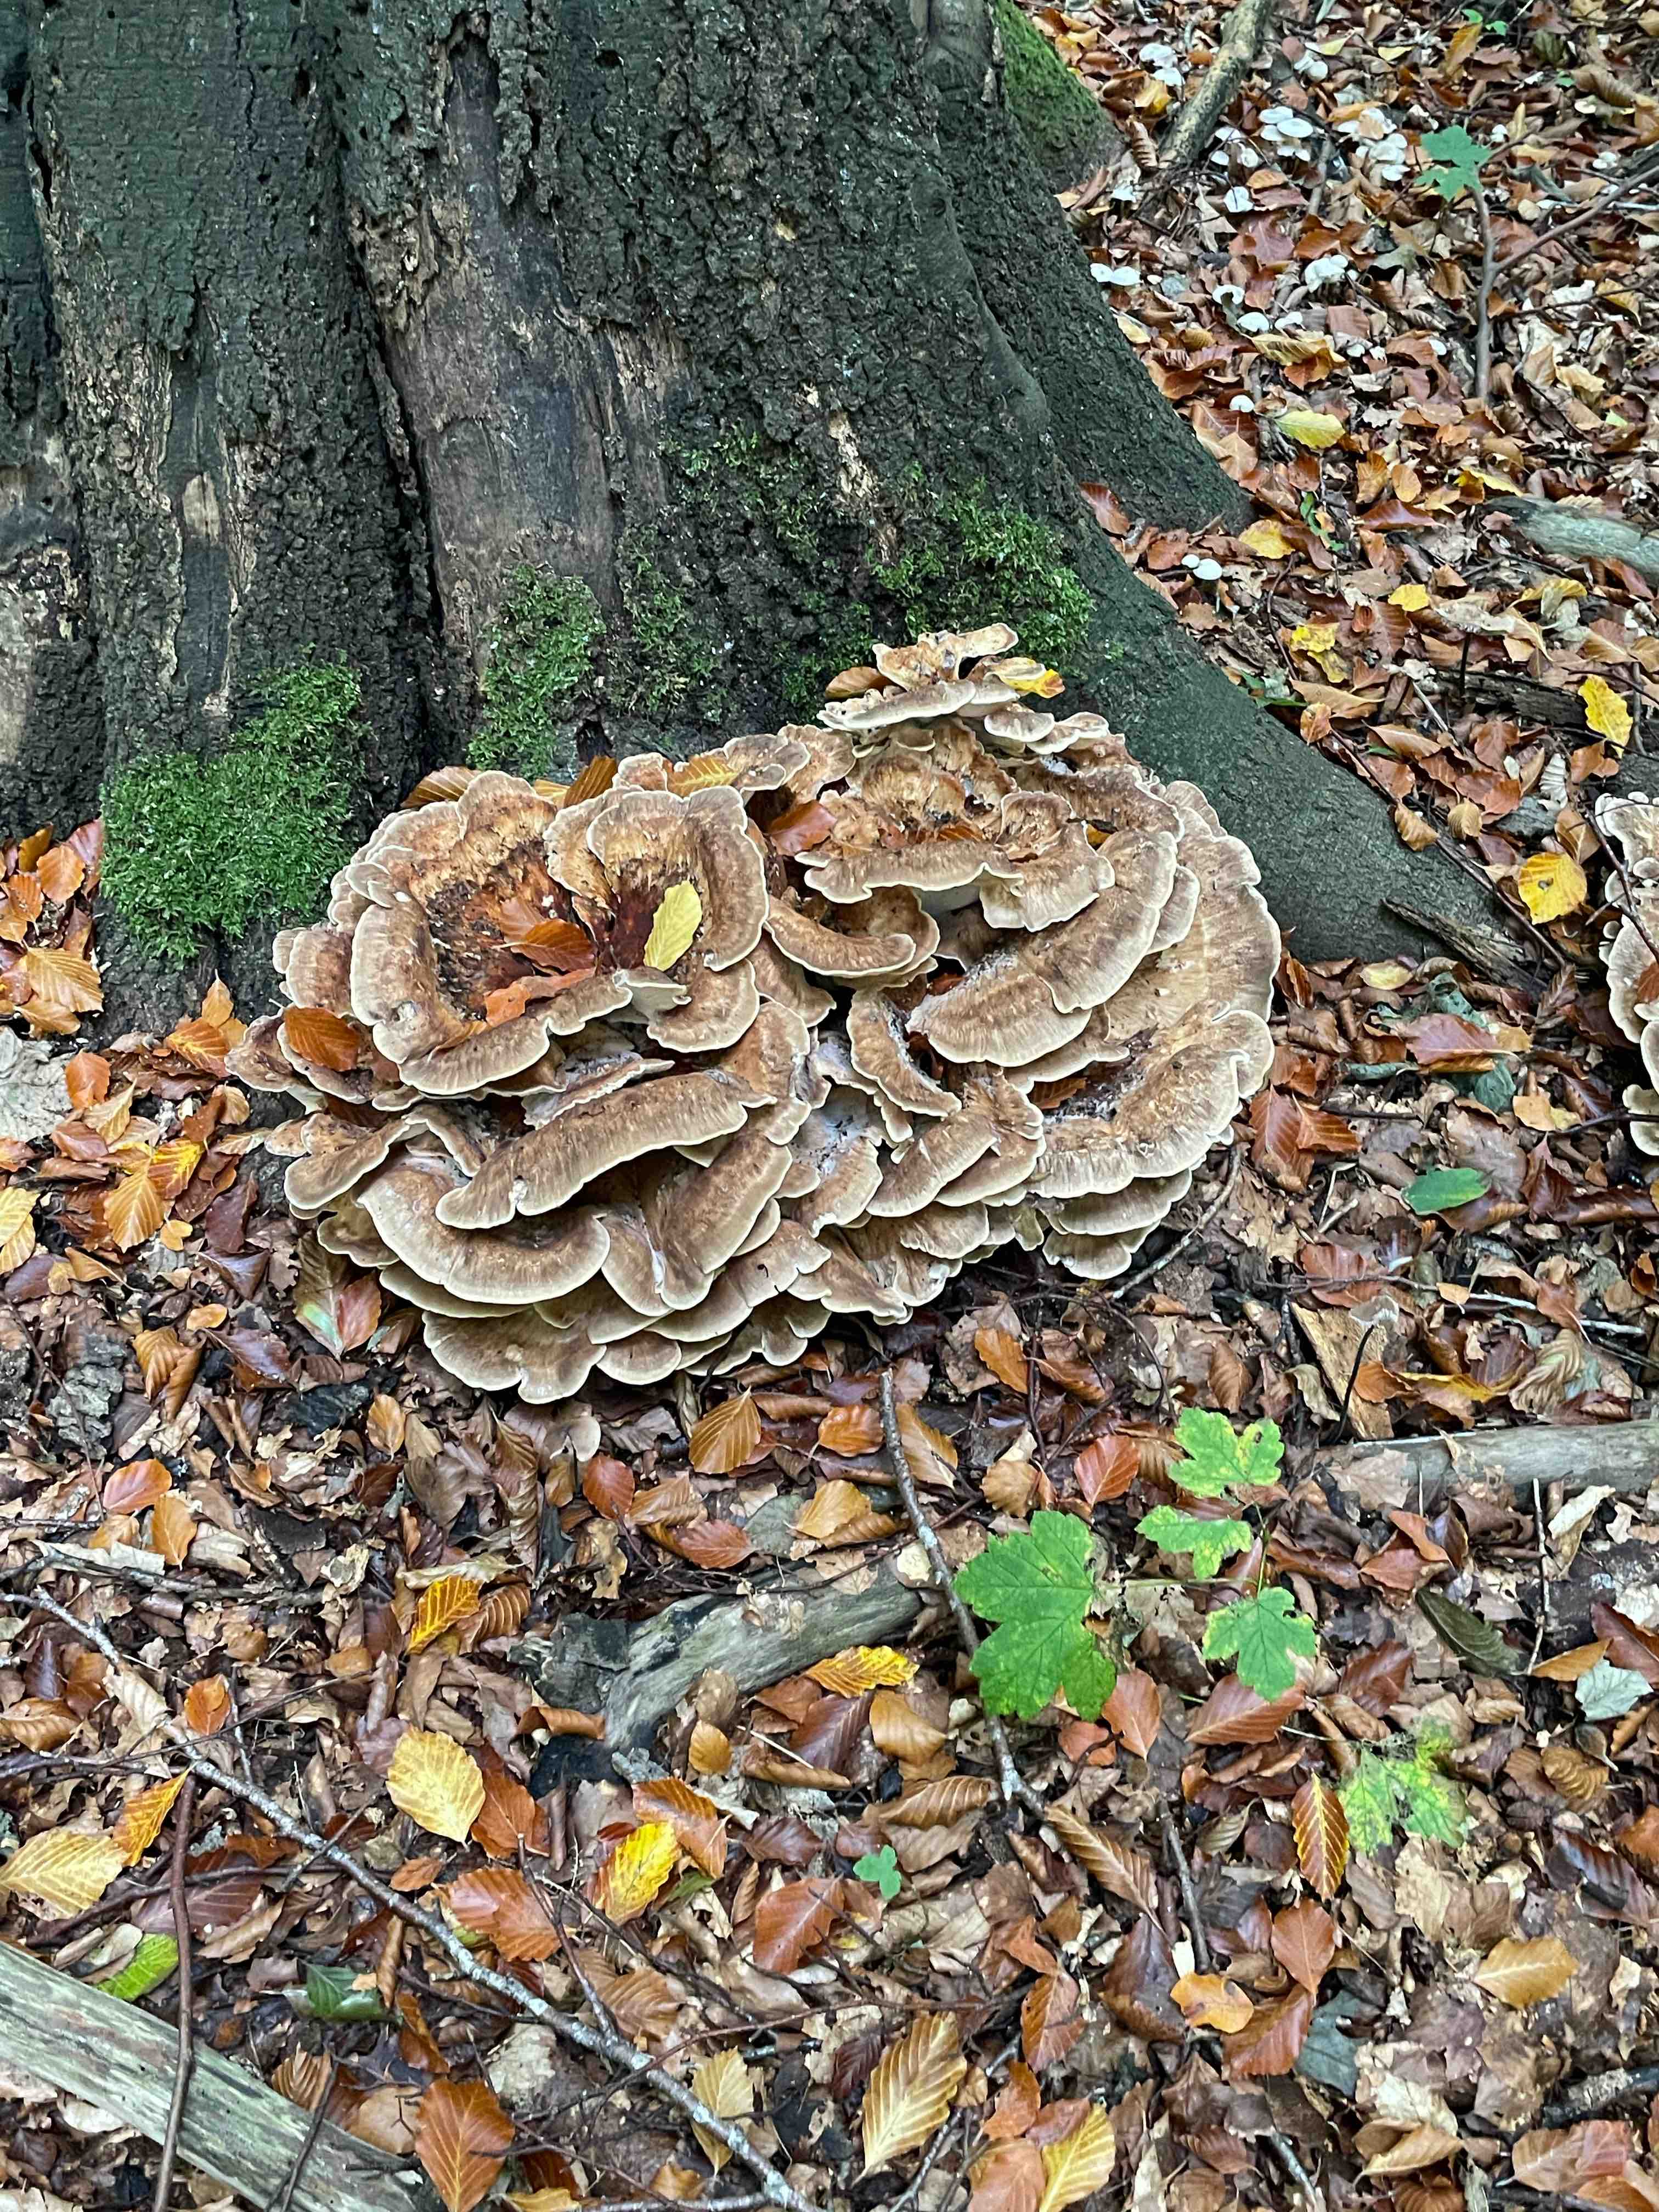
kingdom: Fungi
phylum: Basidiomycota
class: Agaricomycetes
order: Polyporales
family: Meripilaceae
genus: Meripilus
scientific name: Meripilus giganteus
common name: kæmpeporesvamp
